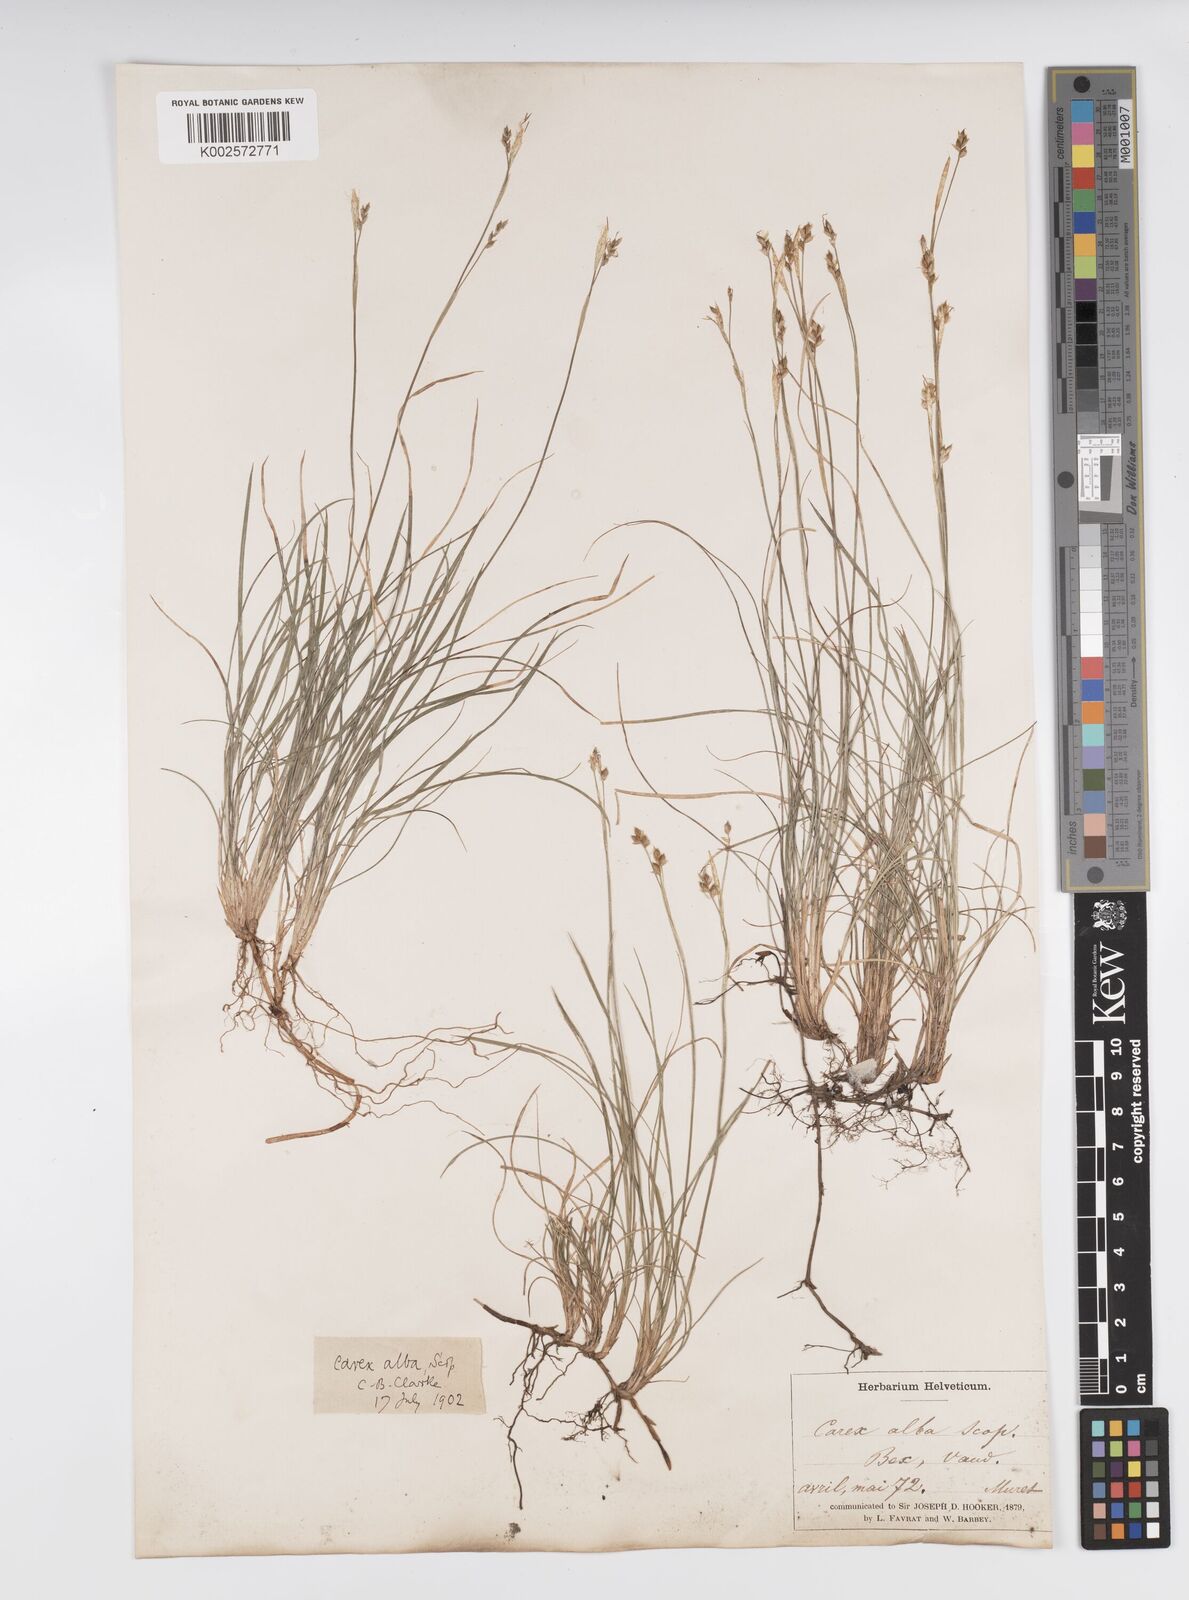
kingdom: Plantae
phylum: Tracheophyta
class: Liliopsida
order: Poales
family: Cyperaceae
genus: Carex
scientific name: Carex alba
